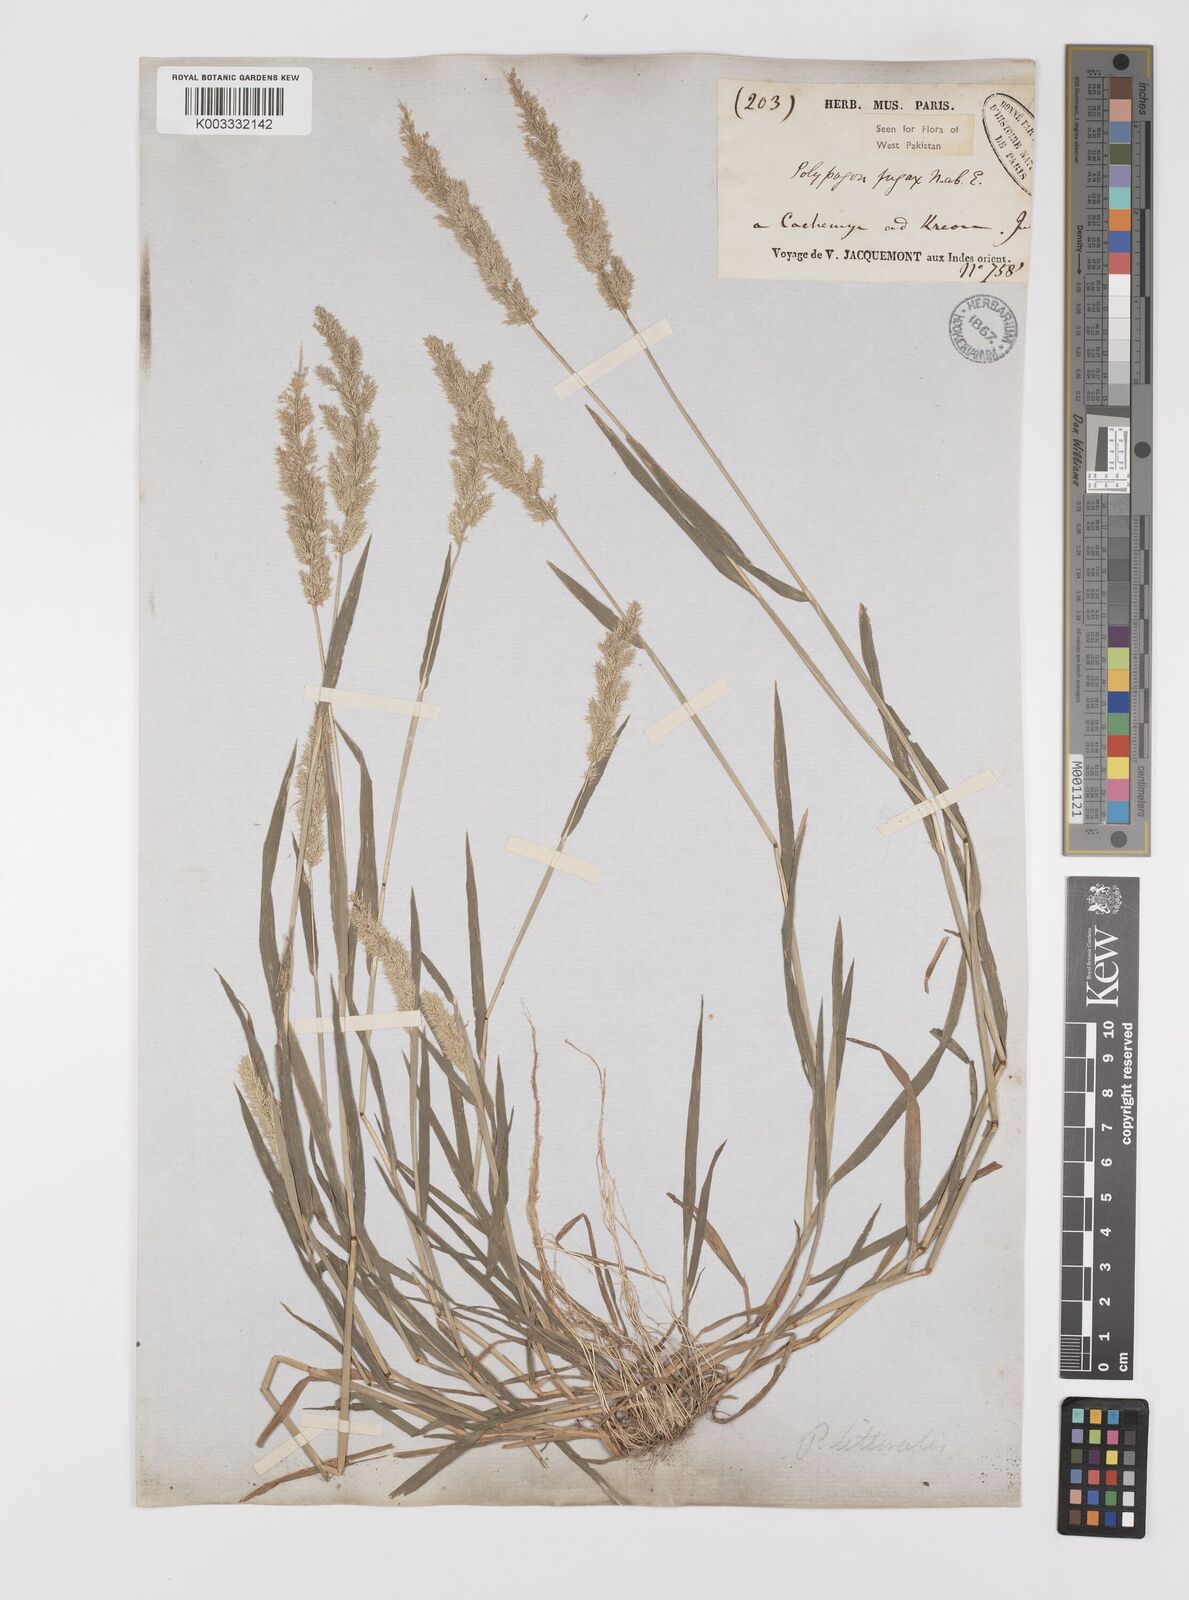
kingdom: Plantae
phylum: Tracheophyta
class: Liliopsida
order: Poales
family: Poaceae
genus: Polypogon
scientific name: Polypogon fugax
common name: Asia minor bluegrass
